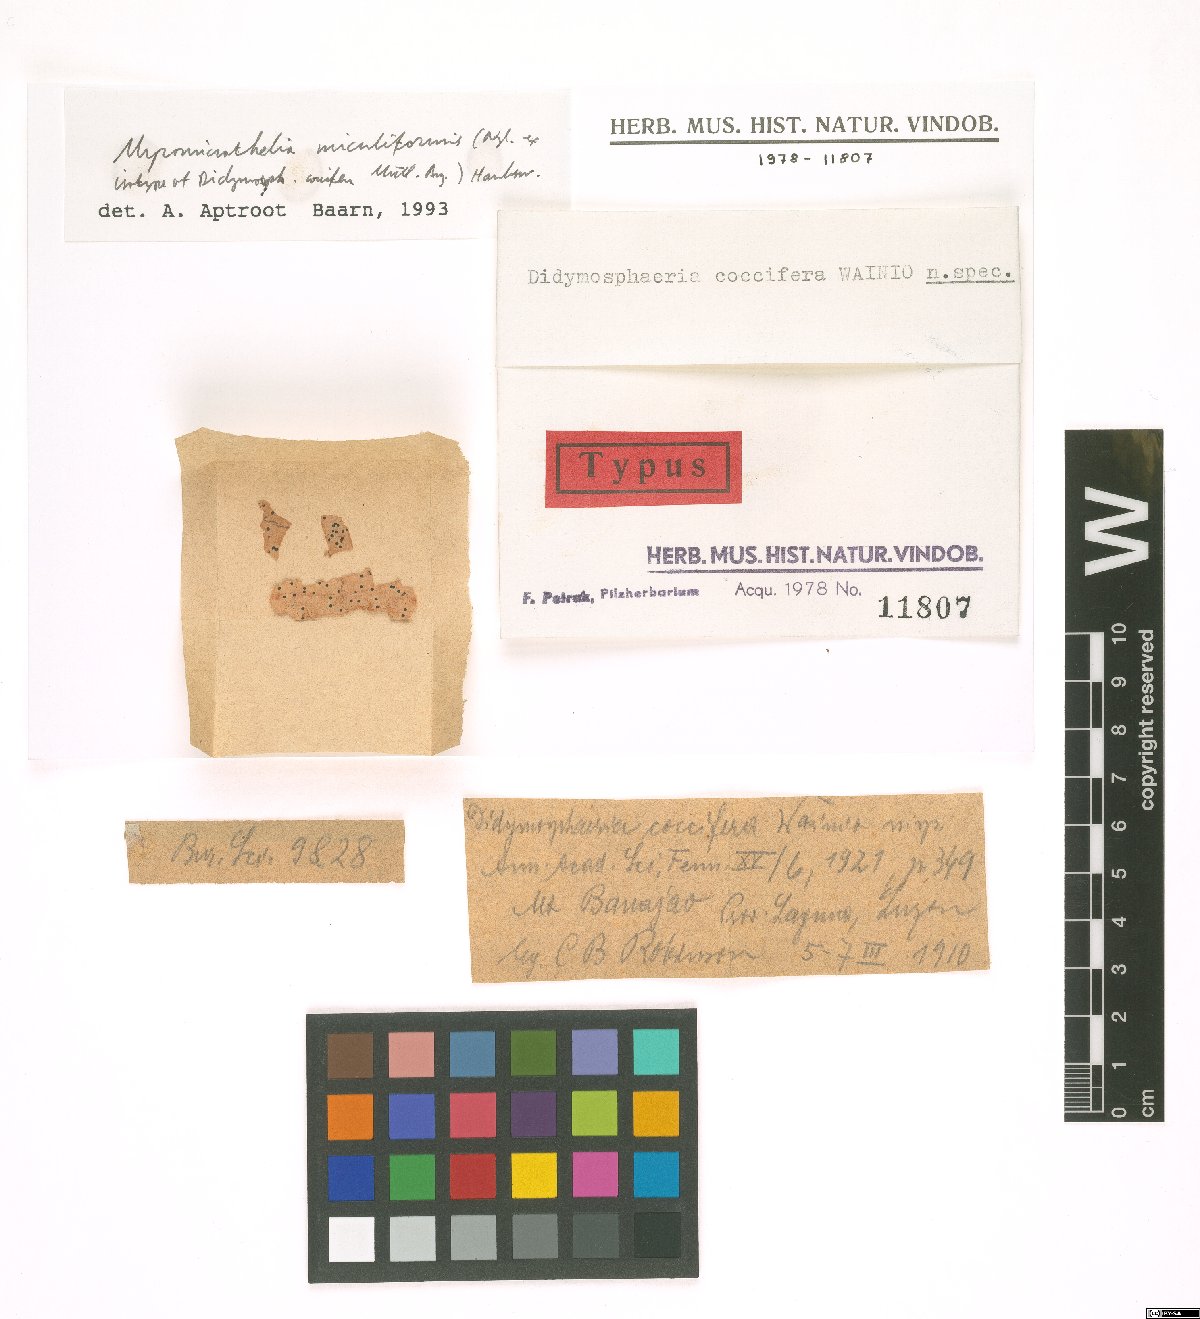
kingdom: Fungi
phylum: Ascomycota
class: Dothideomycetes
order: Pleosporales
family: Didymosphaeriaceae
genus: Didymosphaeria
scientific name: Didymosphaeria coccifera
